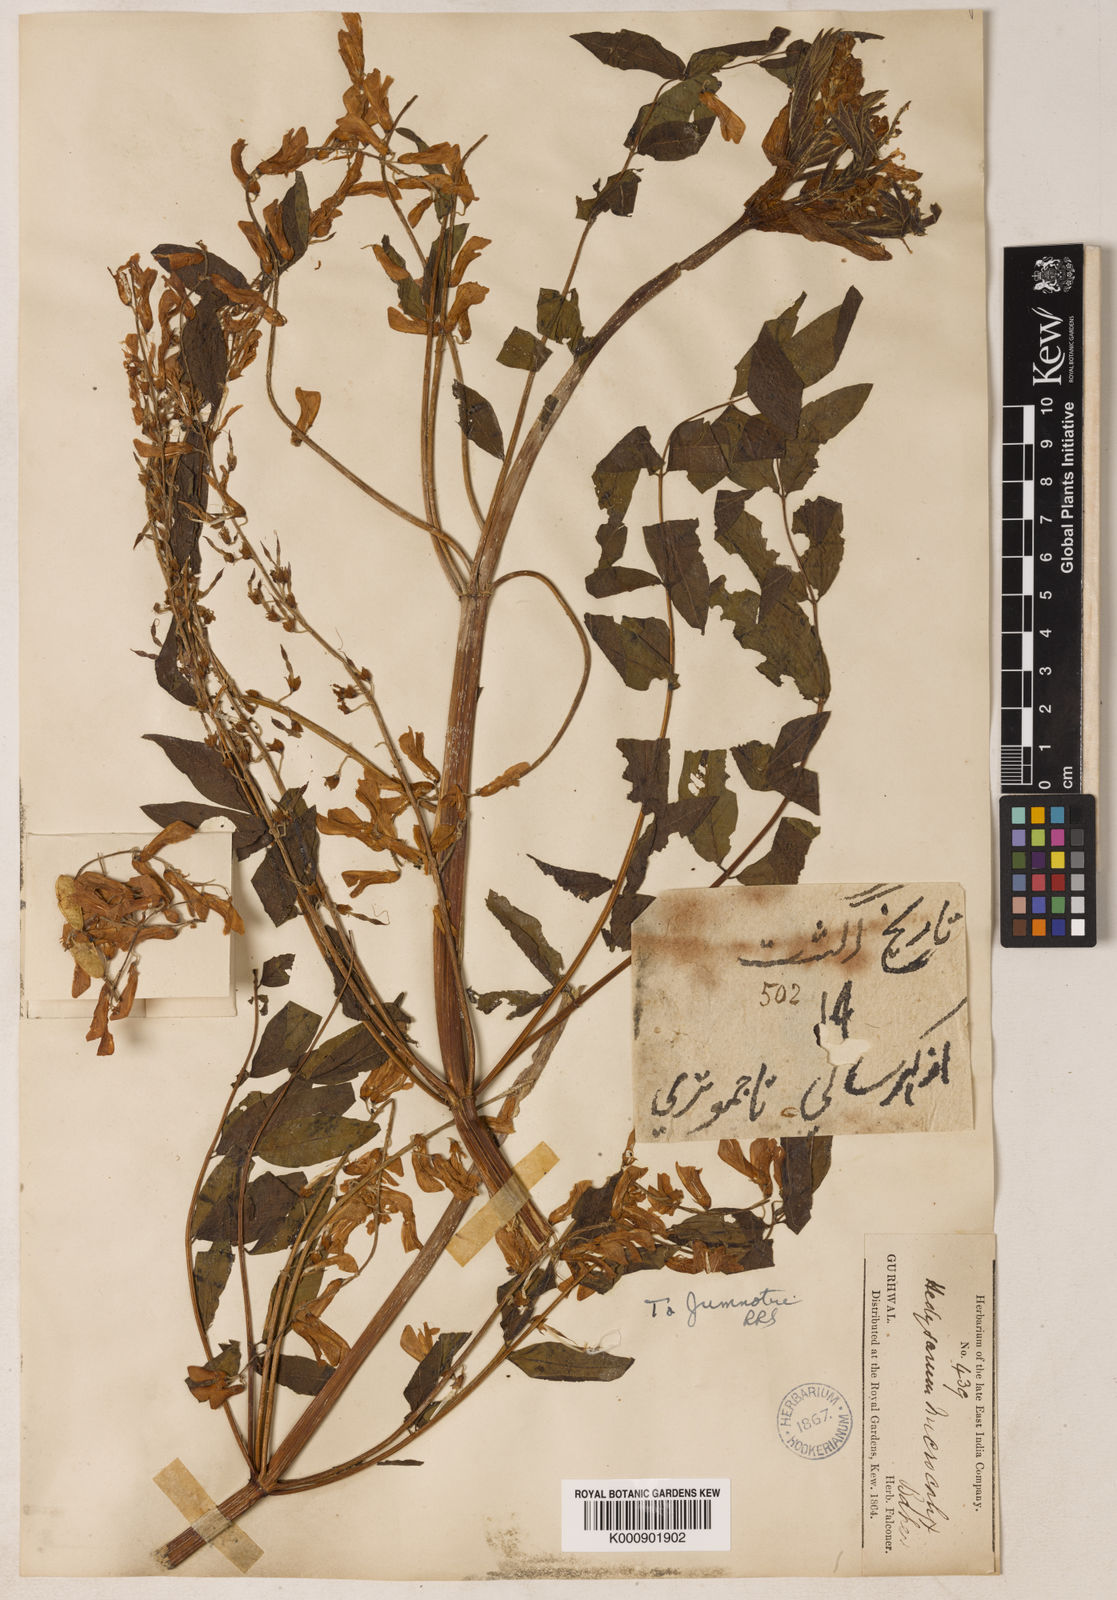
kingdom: Plantae
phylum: Tracheophyta
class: Magnoliopsida
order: Fabales
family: Fabaceae
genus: Hedysarum
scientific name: Hedysarum microcalyx
